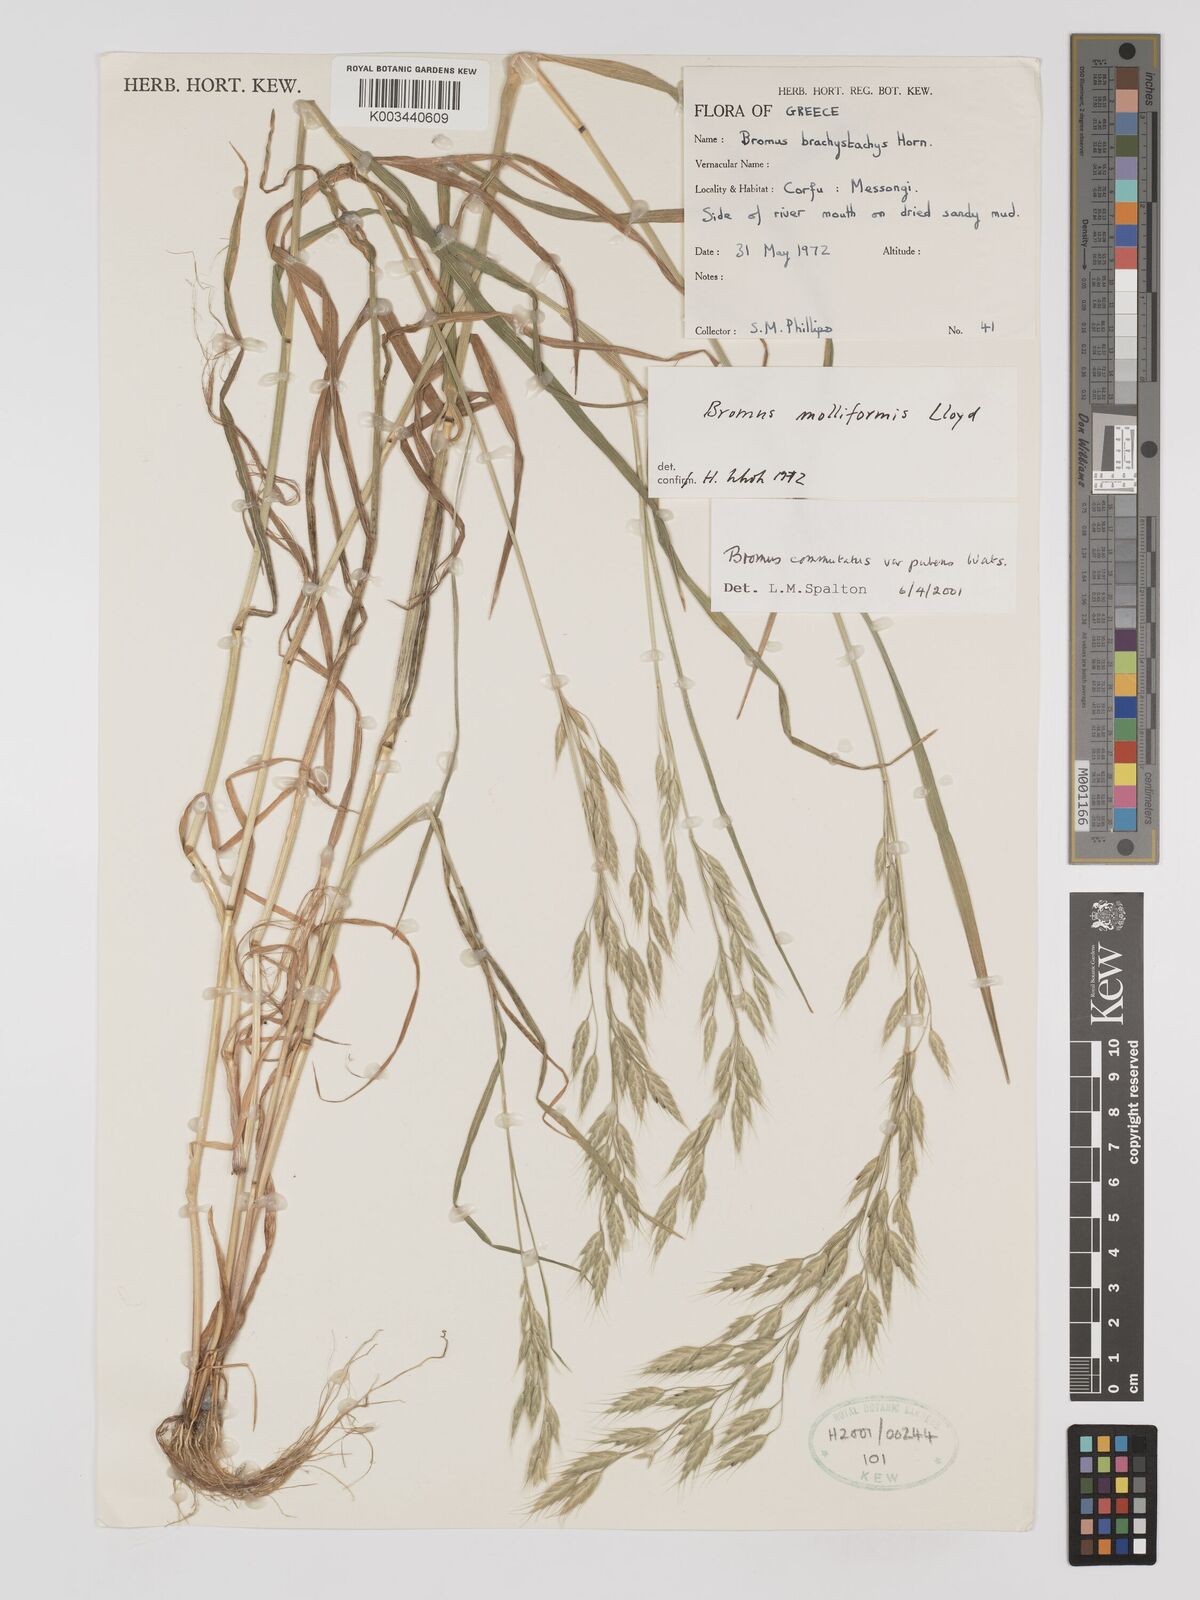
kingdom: Plantae
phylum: Tracheophyta
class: Liliopsida
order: Poales
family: Poaceae
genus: Bromus
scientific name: Bromus racemosus
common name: Bald brome
